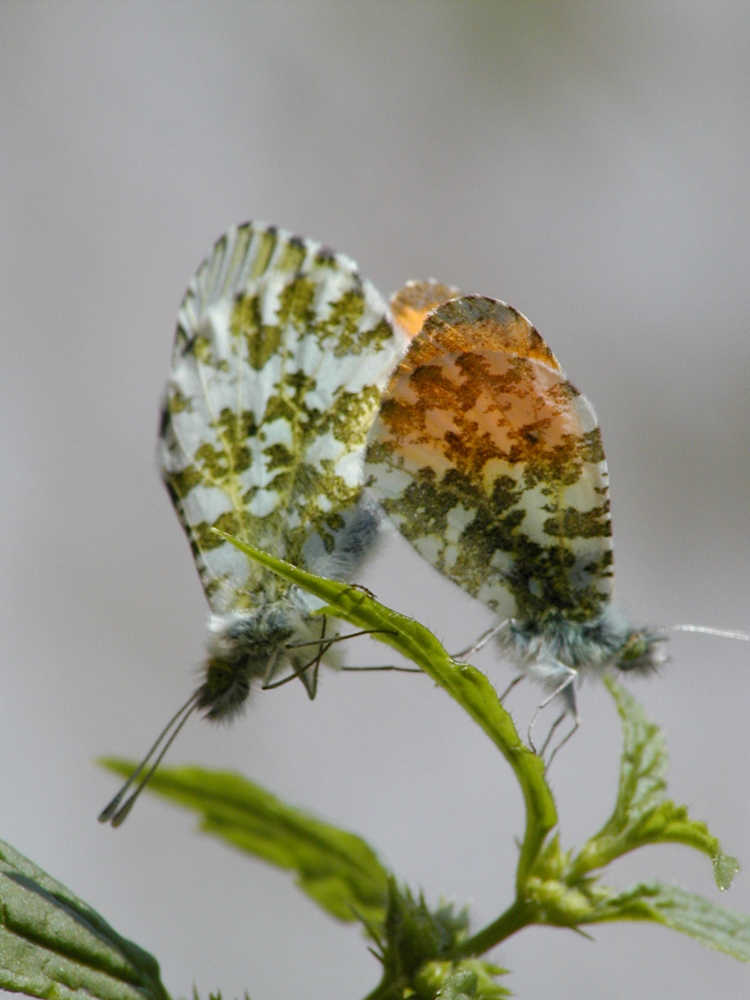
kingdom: Animalia
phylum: Arthropoda
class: Insecta
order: Lepidoptera
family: Pieridae
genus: Anthocharis
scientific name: Anthocharis cardamines
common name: Orange-tip
